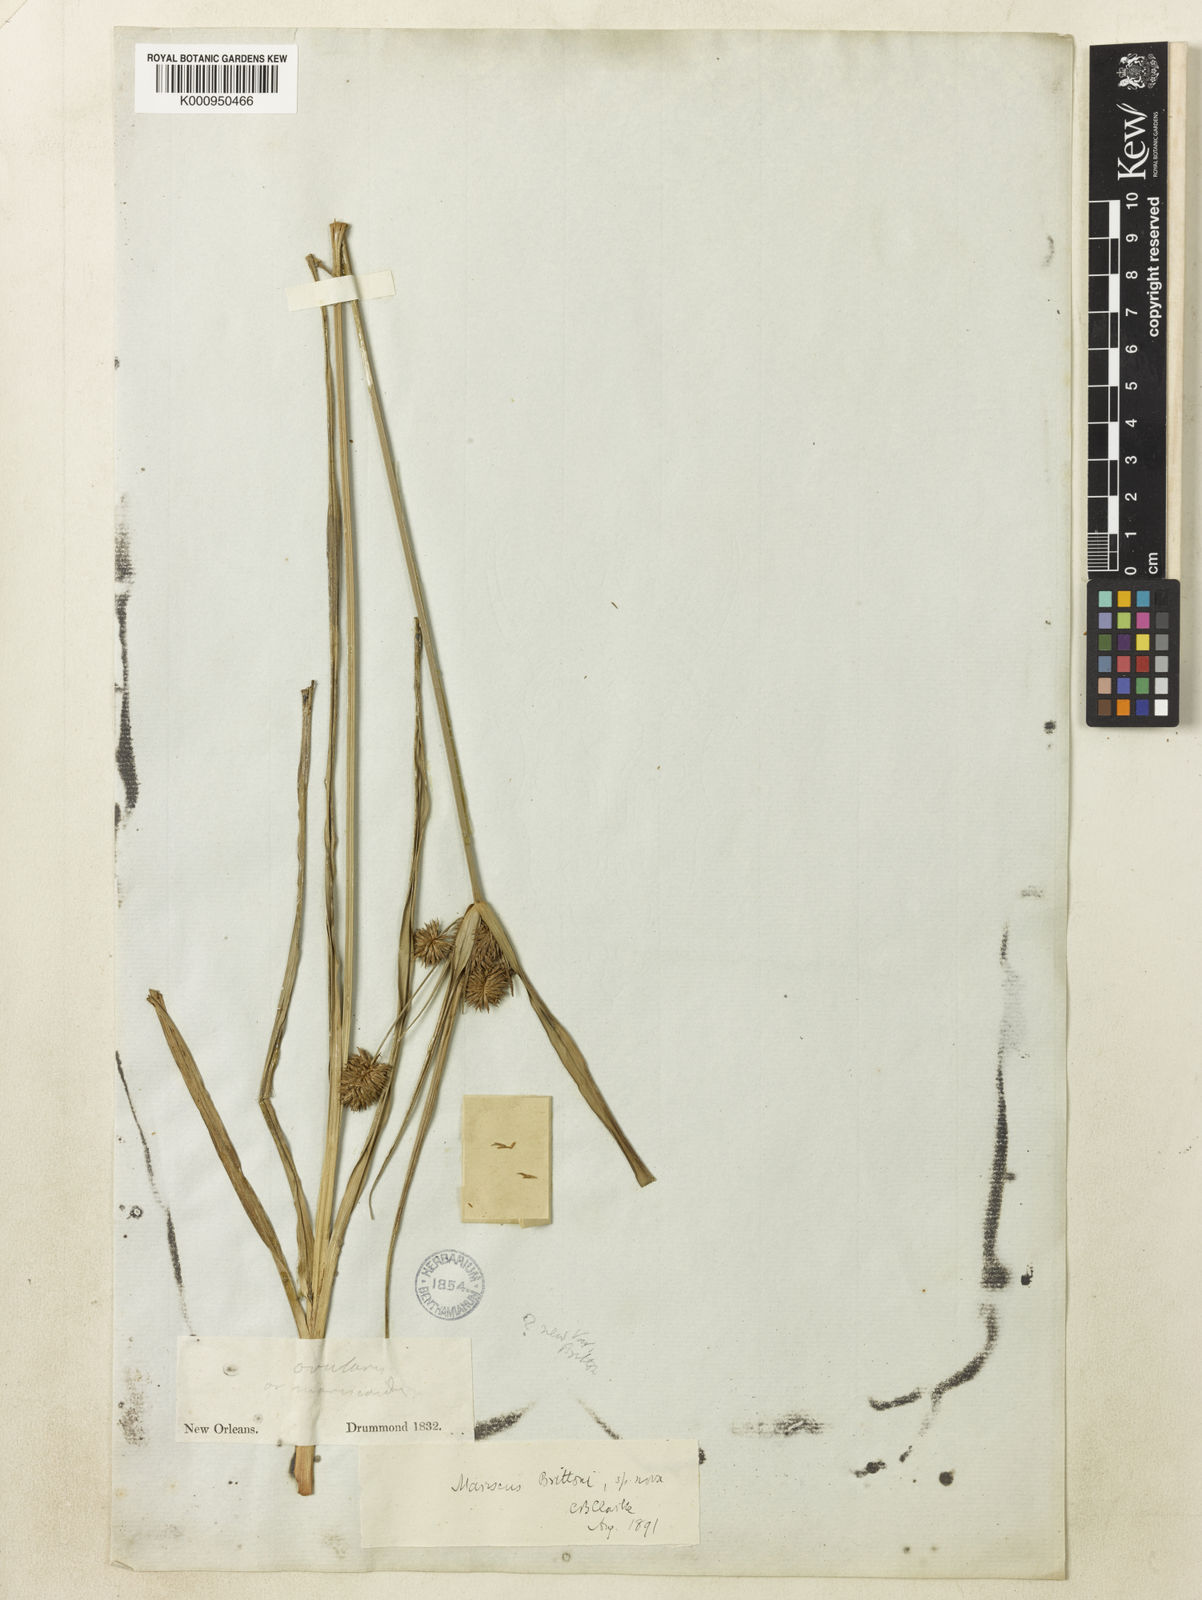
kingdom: Plantae
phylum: Tracheophyta
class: Liliopsida
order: Poales
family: Cyperaceae
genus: Cyperus
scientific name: Cyperus retrorsus
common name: Pinebarren flat sedge
